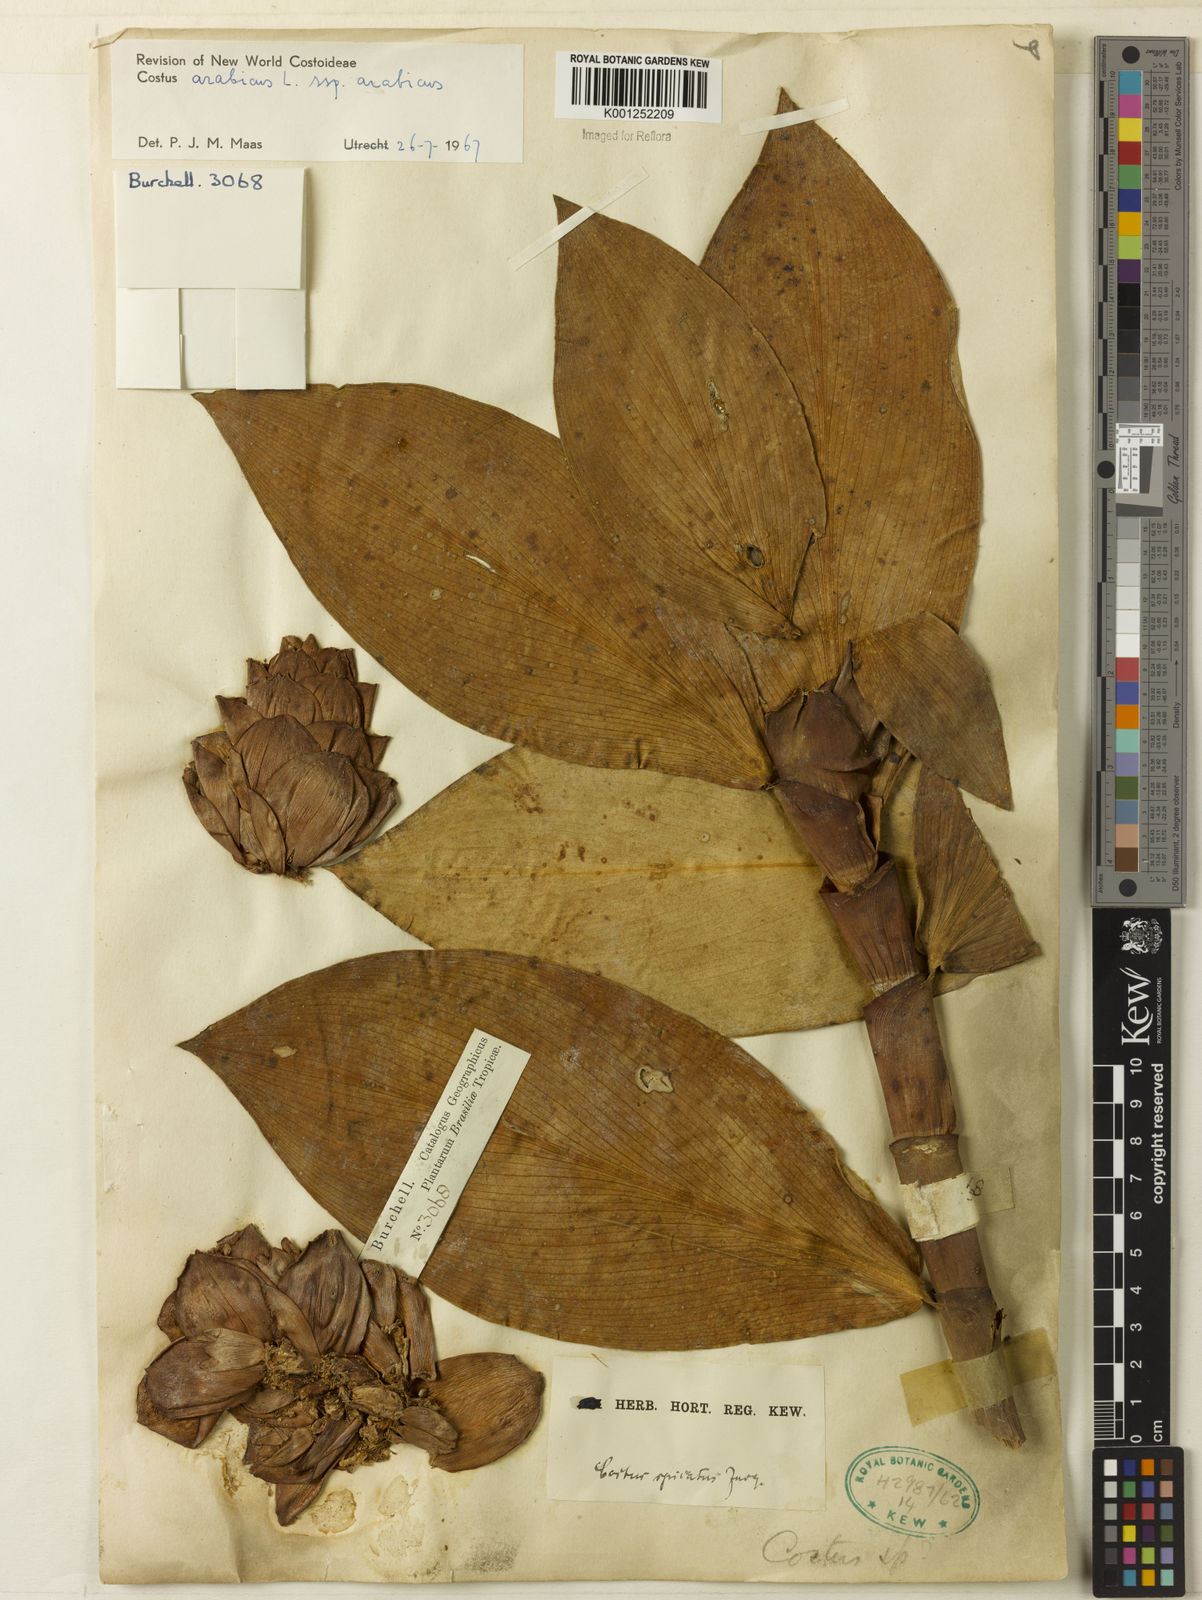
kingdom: Plantae
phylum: Tracheophyta
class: Liliopsida
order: Zingiberales
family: Costaceae
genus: Costus
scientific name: Costus arabicus
